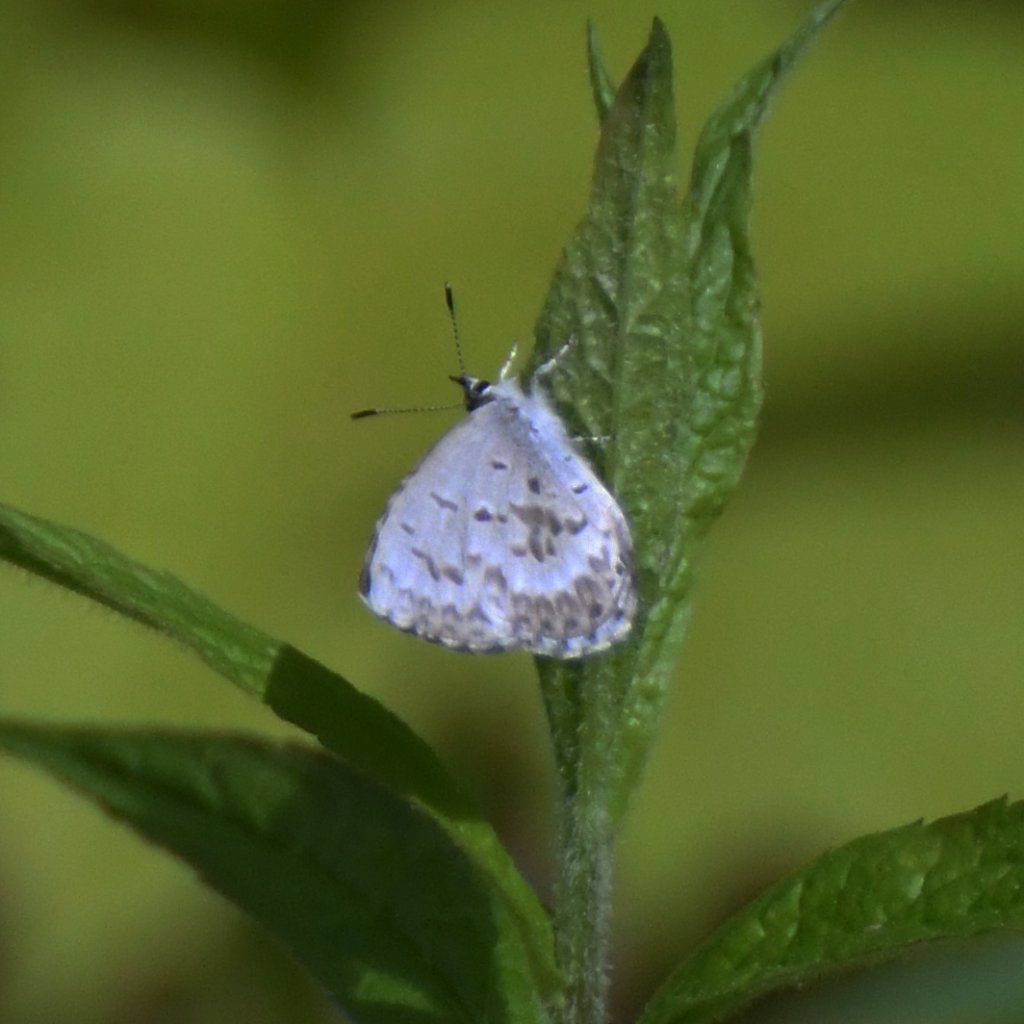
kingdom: Animalia
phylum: Arthropoda
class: Insecta
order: Lepidoptera
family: Lycaenidae
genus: Celastrina
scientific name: Celastrina lucia
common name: Northern Spring Azure
